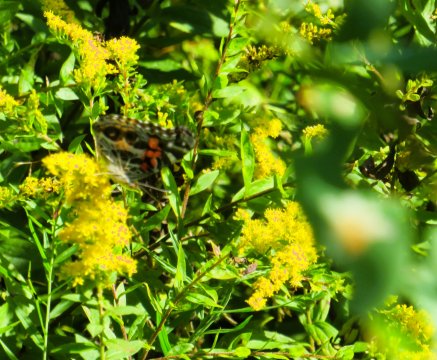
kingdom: Animalia
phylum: Arthropoda
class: Insecta
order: Lepidoptera
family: Nymphalidae
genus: Vanessa
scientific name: Vanessa virginiensis
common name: American Lady
